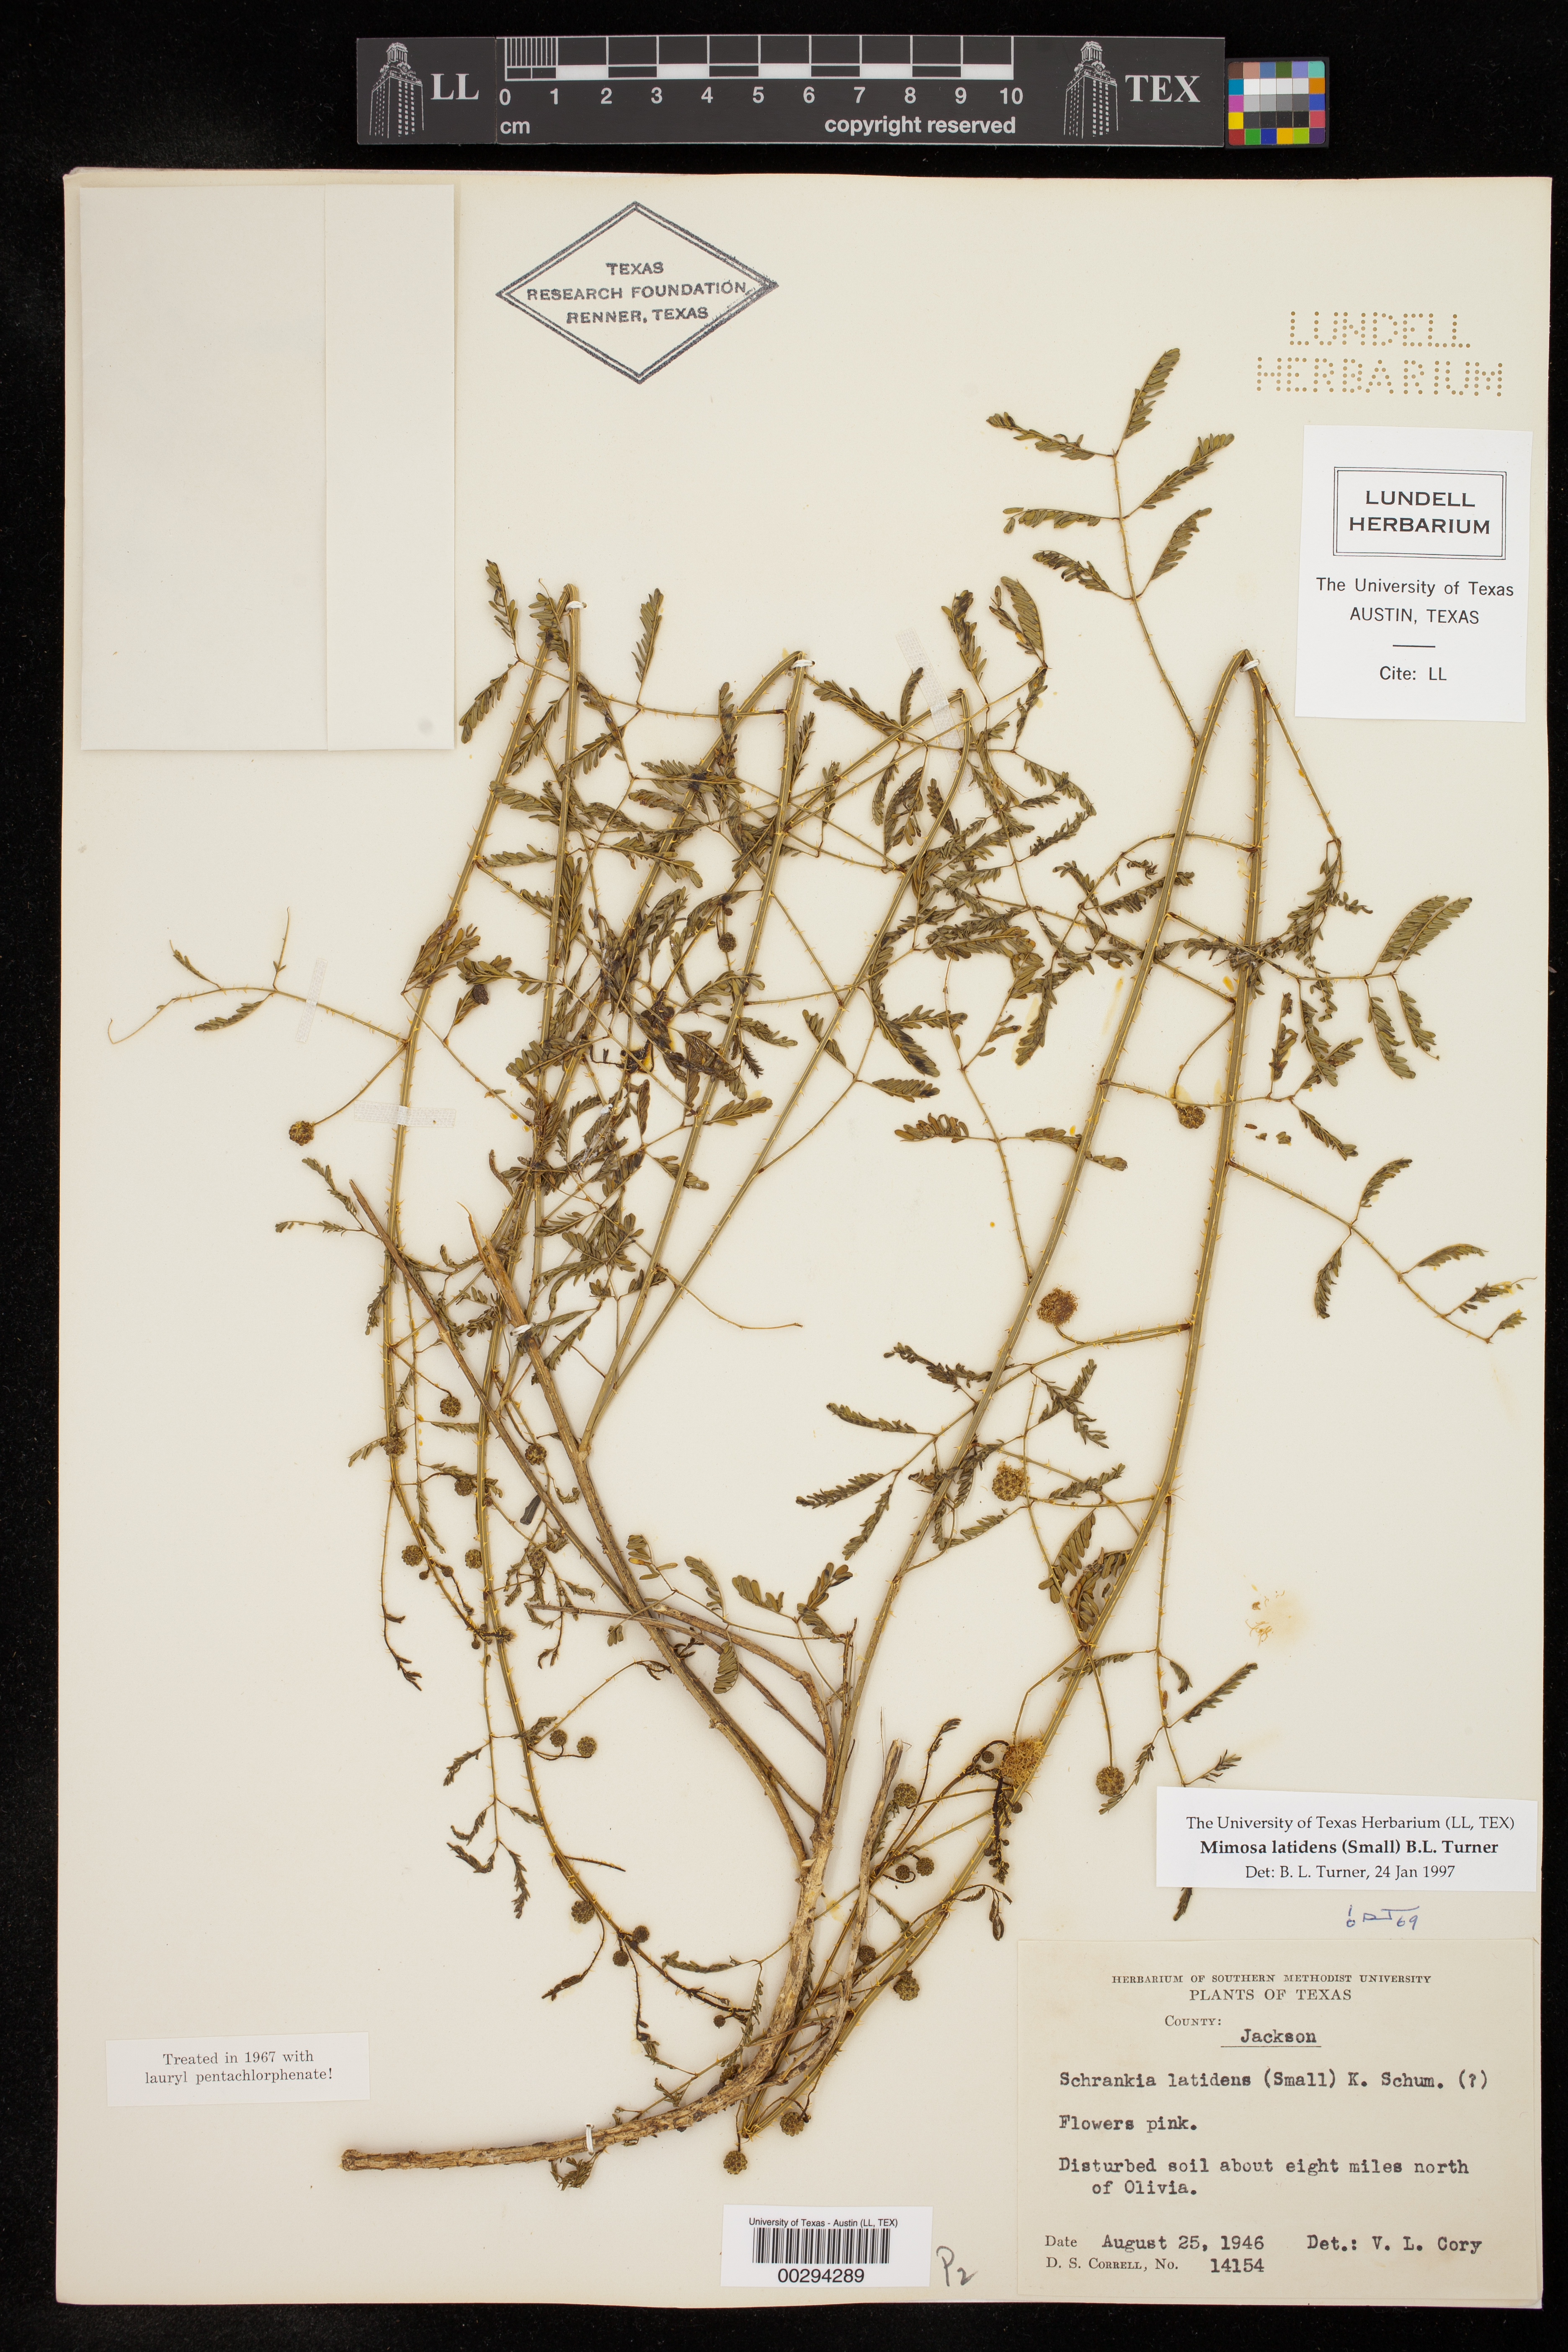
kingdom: Plantae
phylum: Tracheophyta
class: Magnoliopsida
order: Fabales
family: Fabaceae
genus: Mimosa
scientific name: Mimosa latidens
